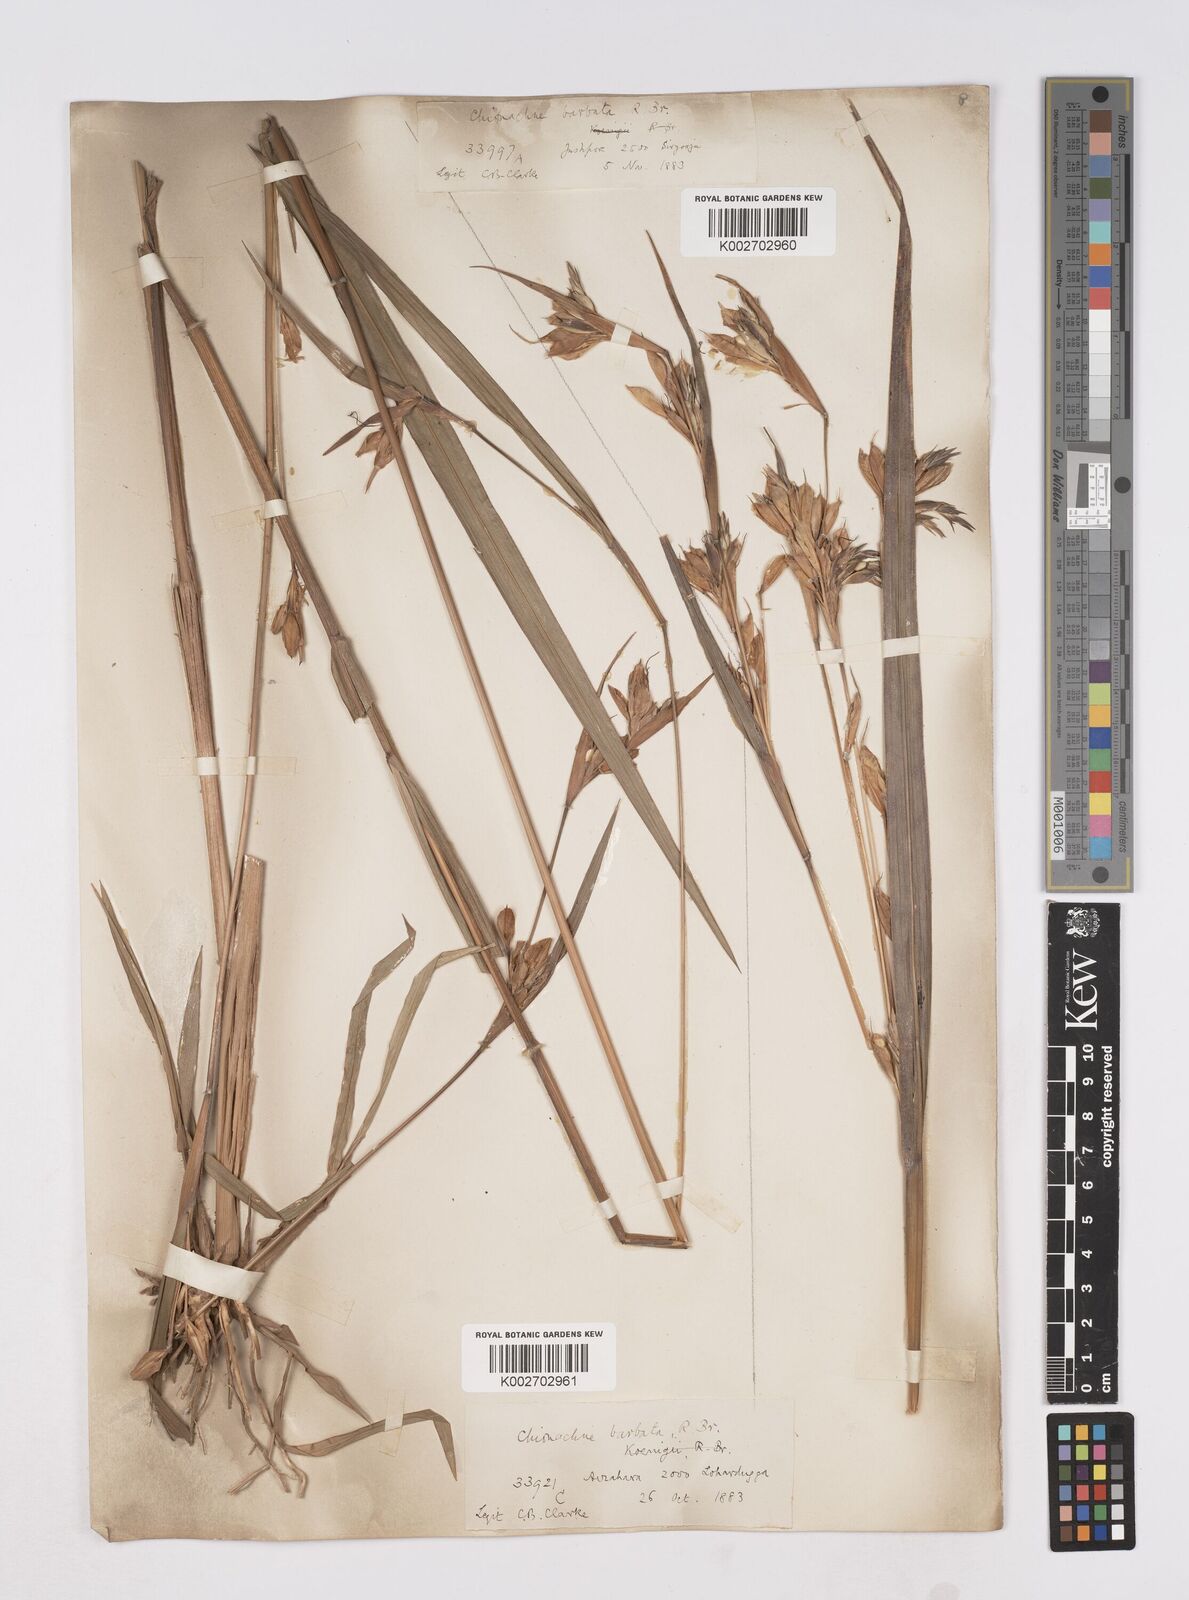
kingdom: Plantae
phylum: Tracheophyta
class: Liliopsida
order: Poales
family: Poaceae
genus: Polytoca
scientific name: Polytoca gigantea
